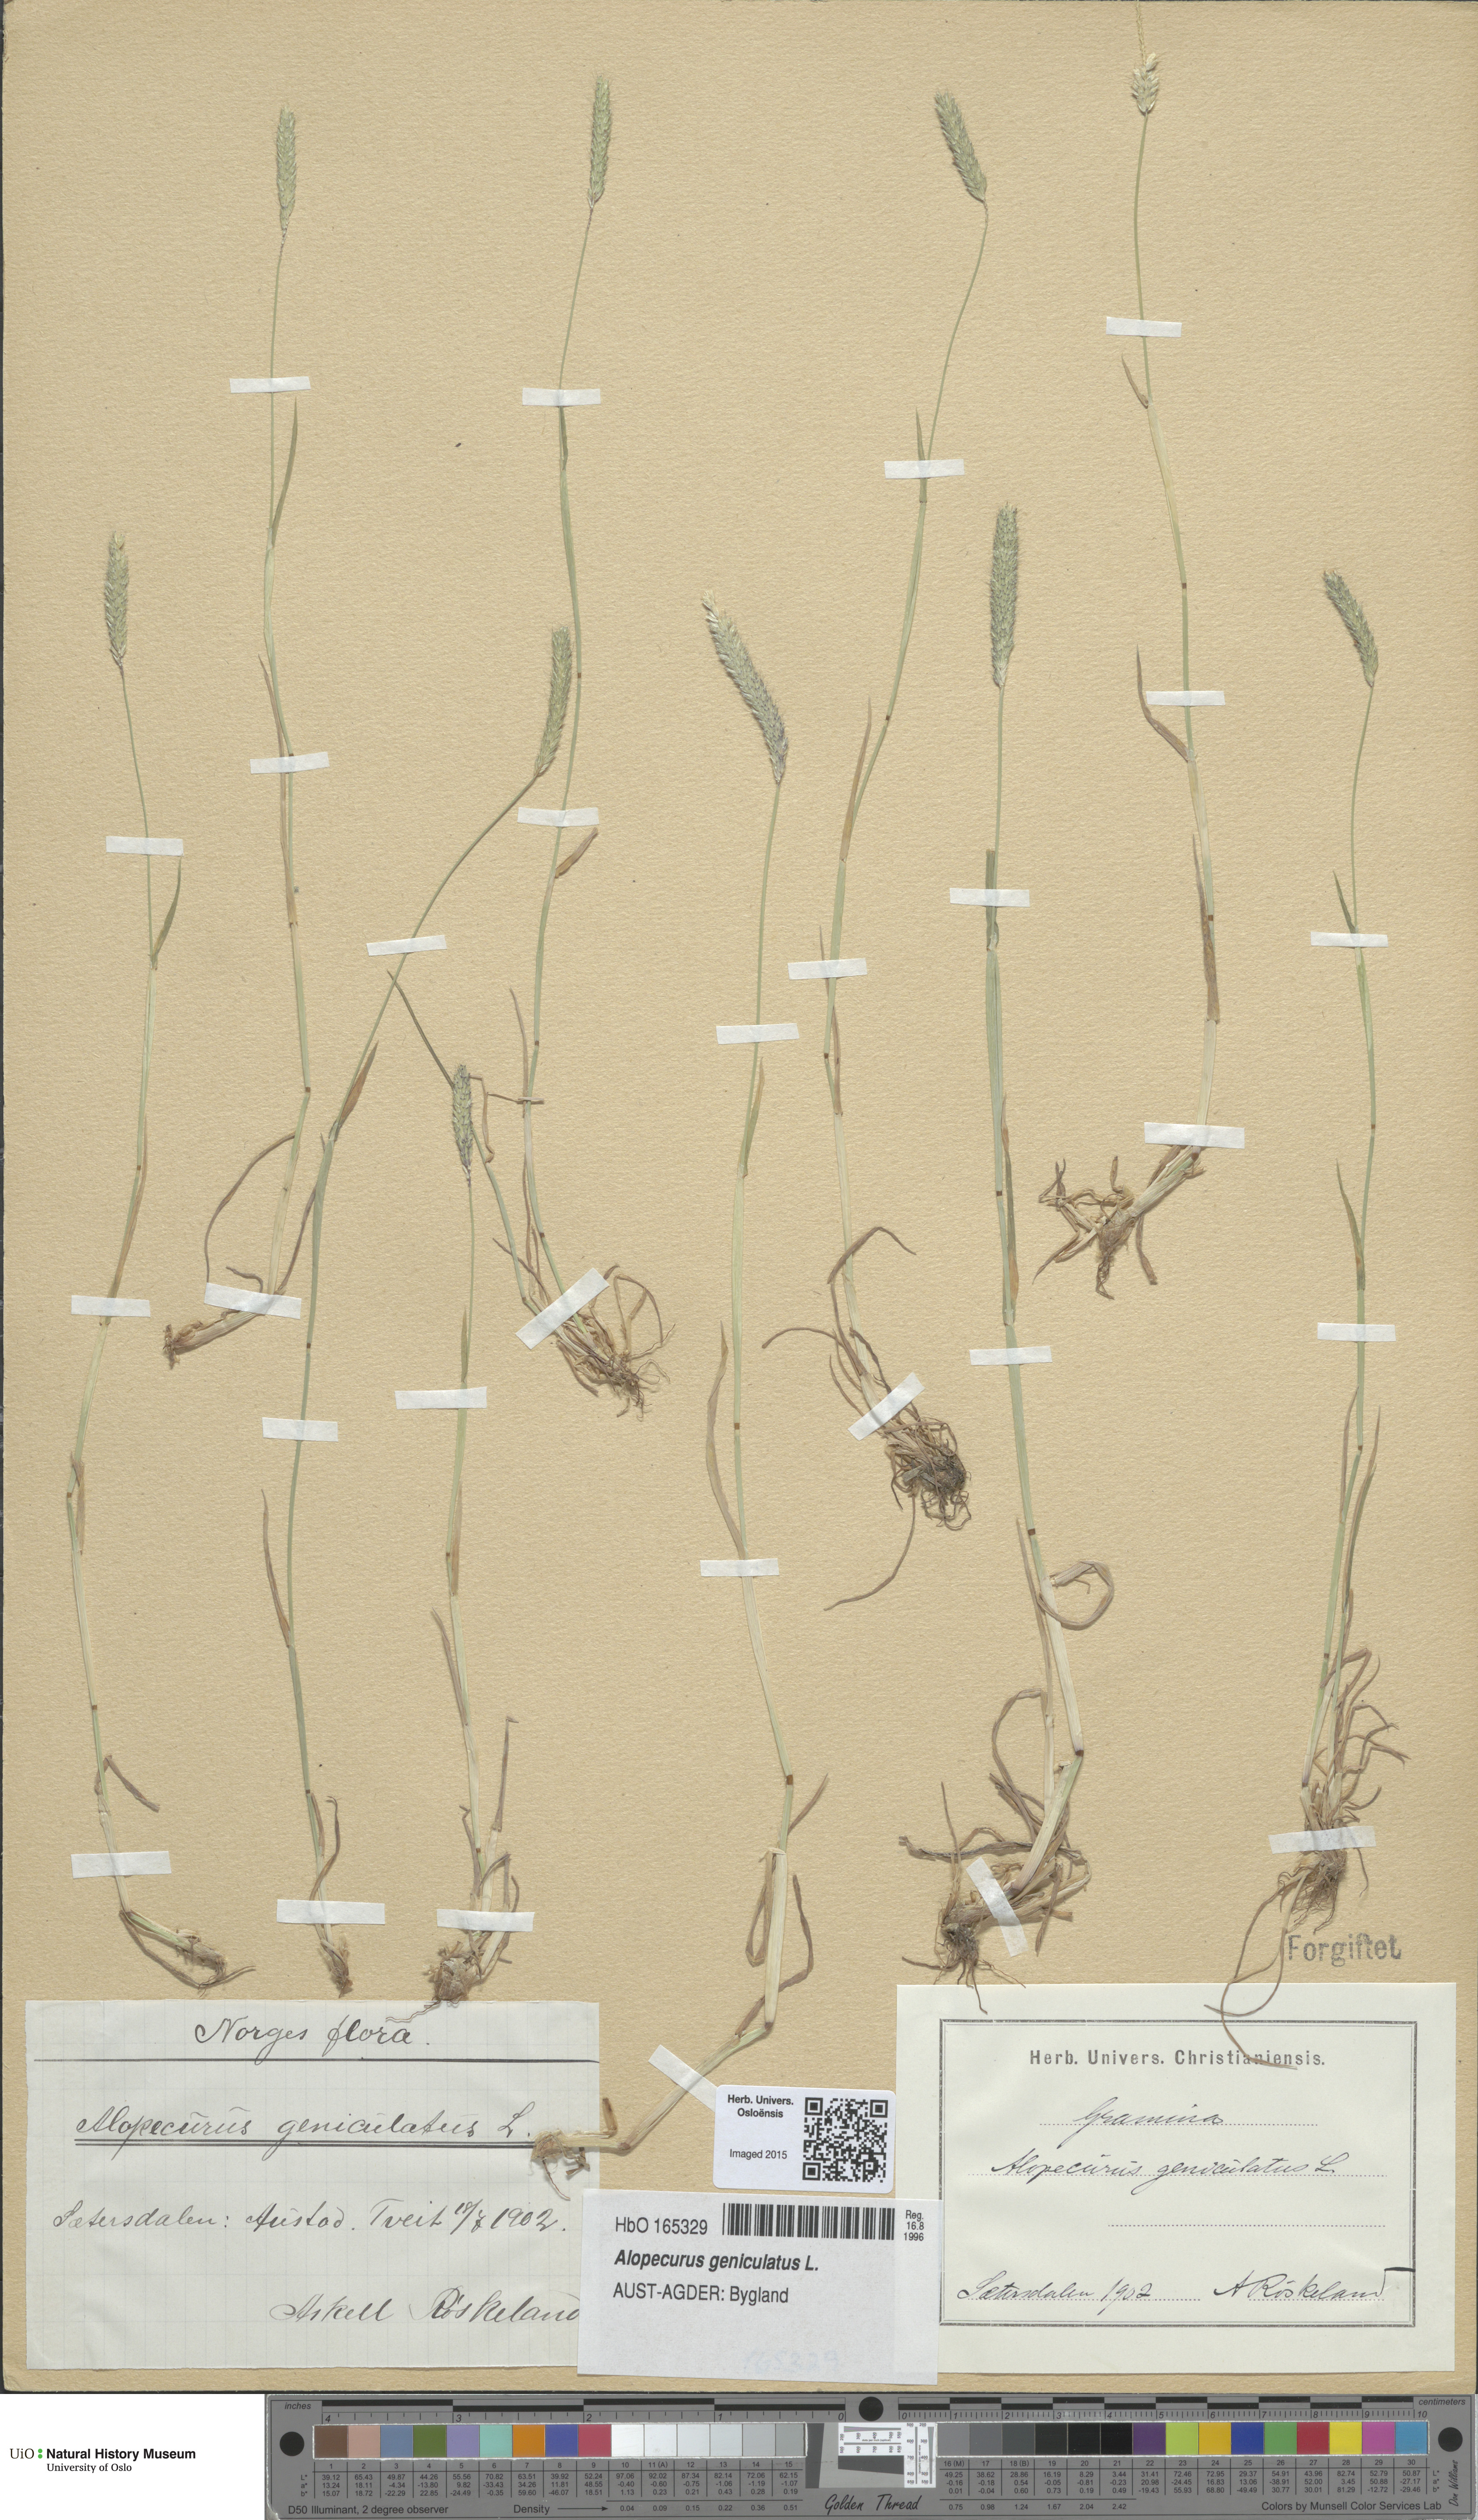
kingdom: Plantae
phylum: Tracheophyta
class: Liliopsida
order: Poales
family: Poaceae
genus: Alopecurus
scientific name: Alopecurus geniculatus
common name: Water foxtail
